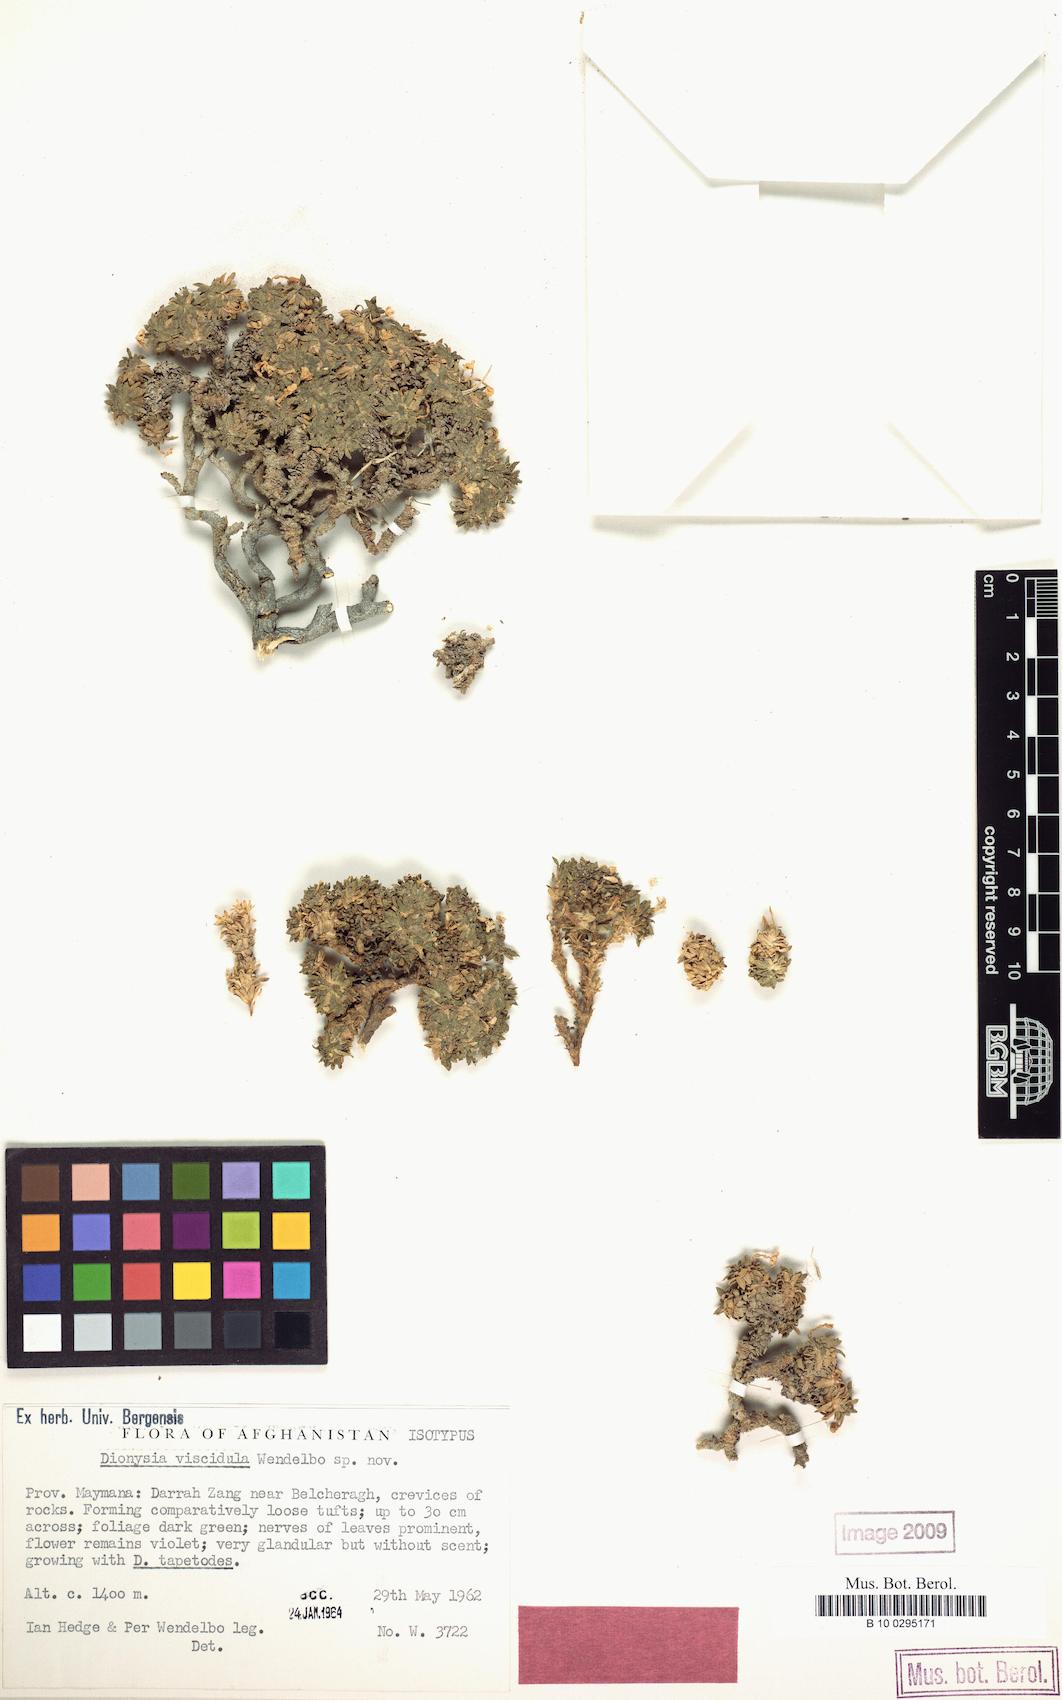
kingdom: Plantae
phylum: Tracheophyta
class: Magnoliopsida
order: Ericales
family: Primulaceae
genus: Dionysia
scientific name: Dionysia viscidula
